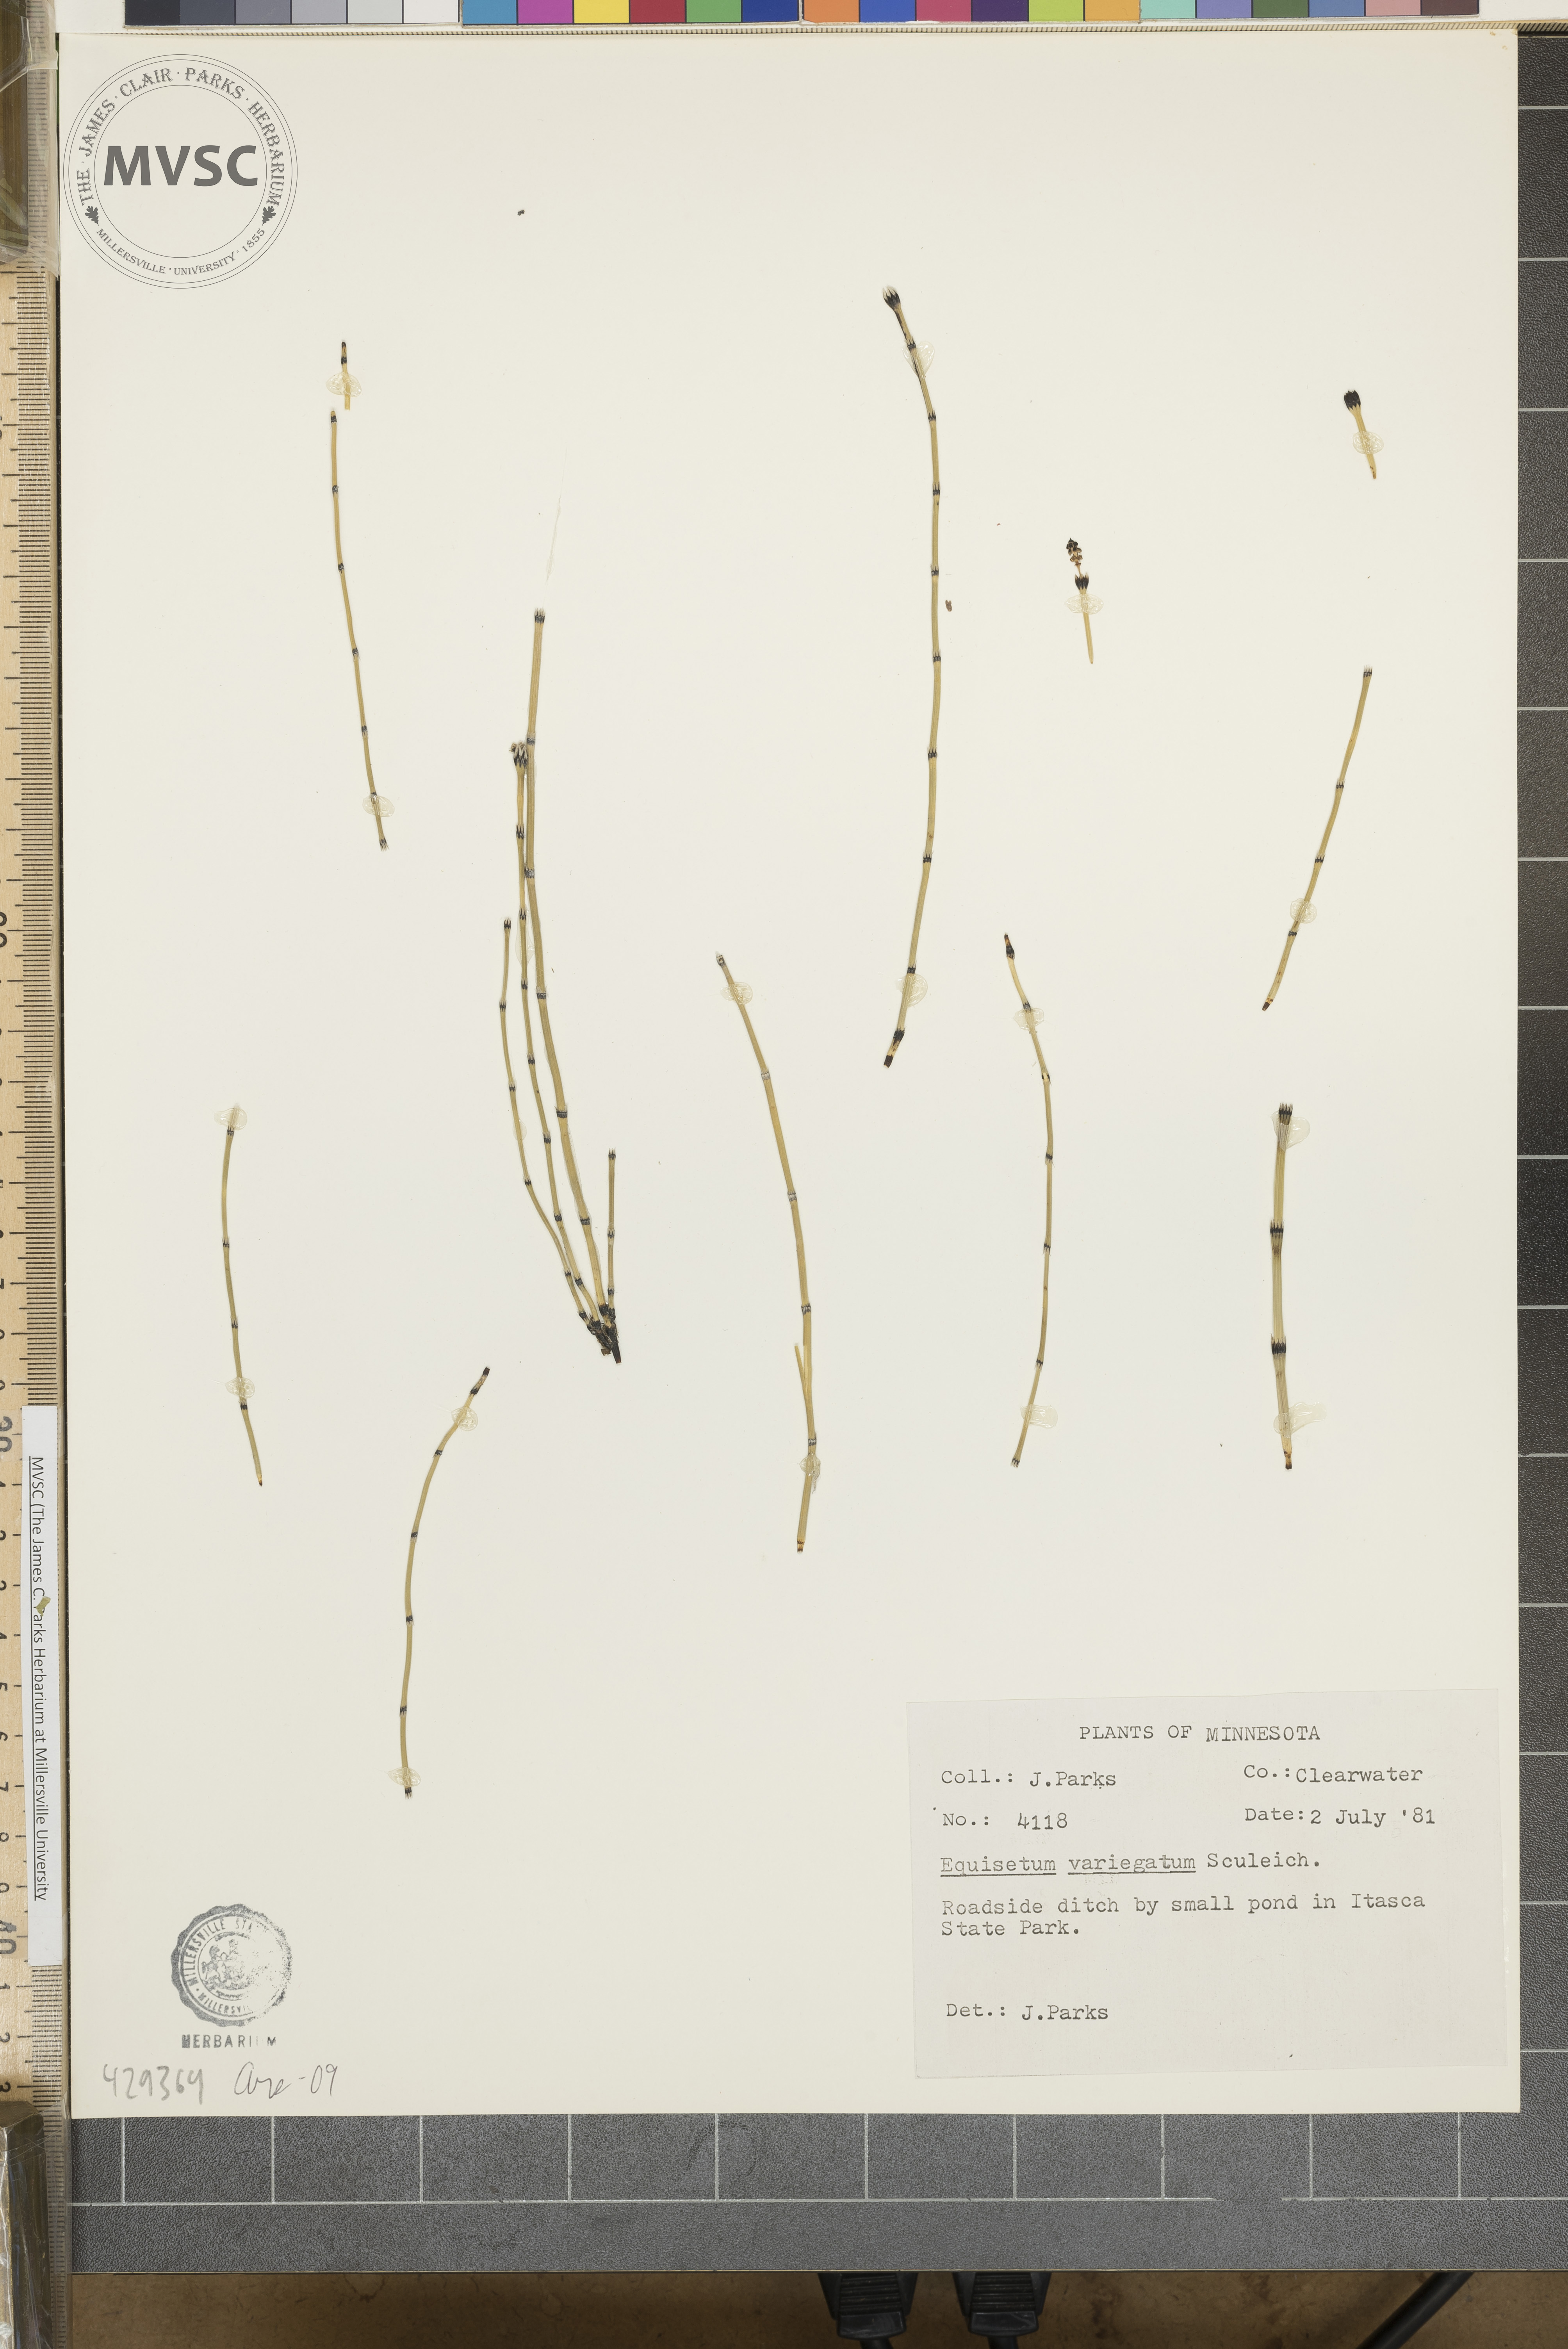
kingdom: Plantae
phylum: Tracheophyta
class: Polypodiopsida
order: Equisetales
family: Equisetaceae
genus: Equisetum
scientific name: Equisetum variegatum
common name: Variegated horsetail
